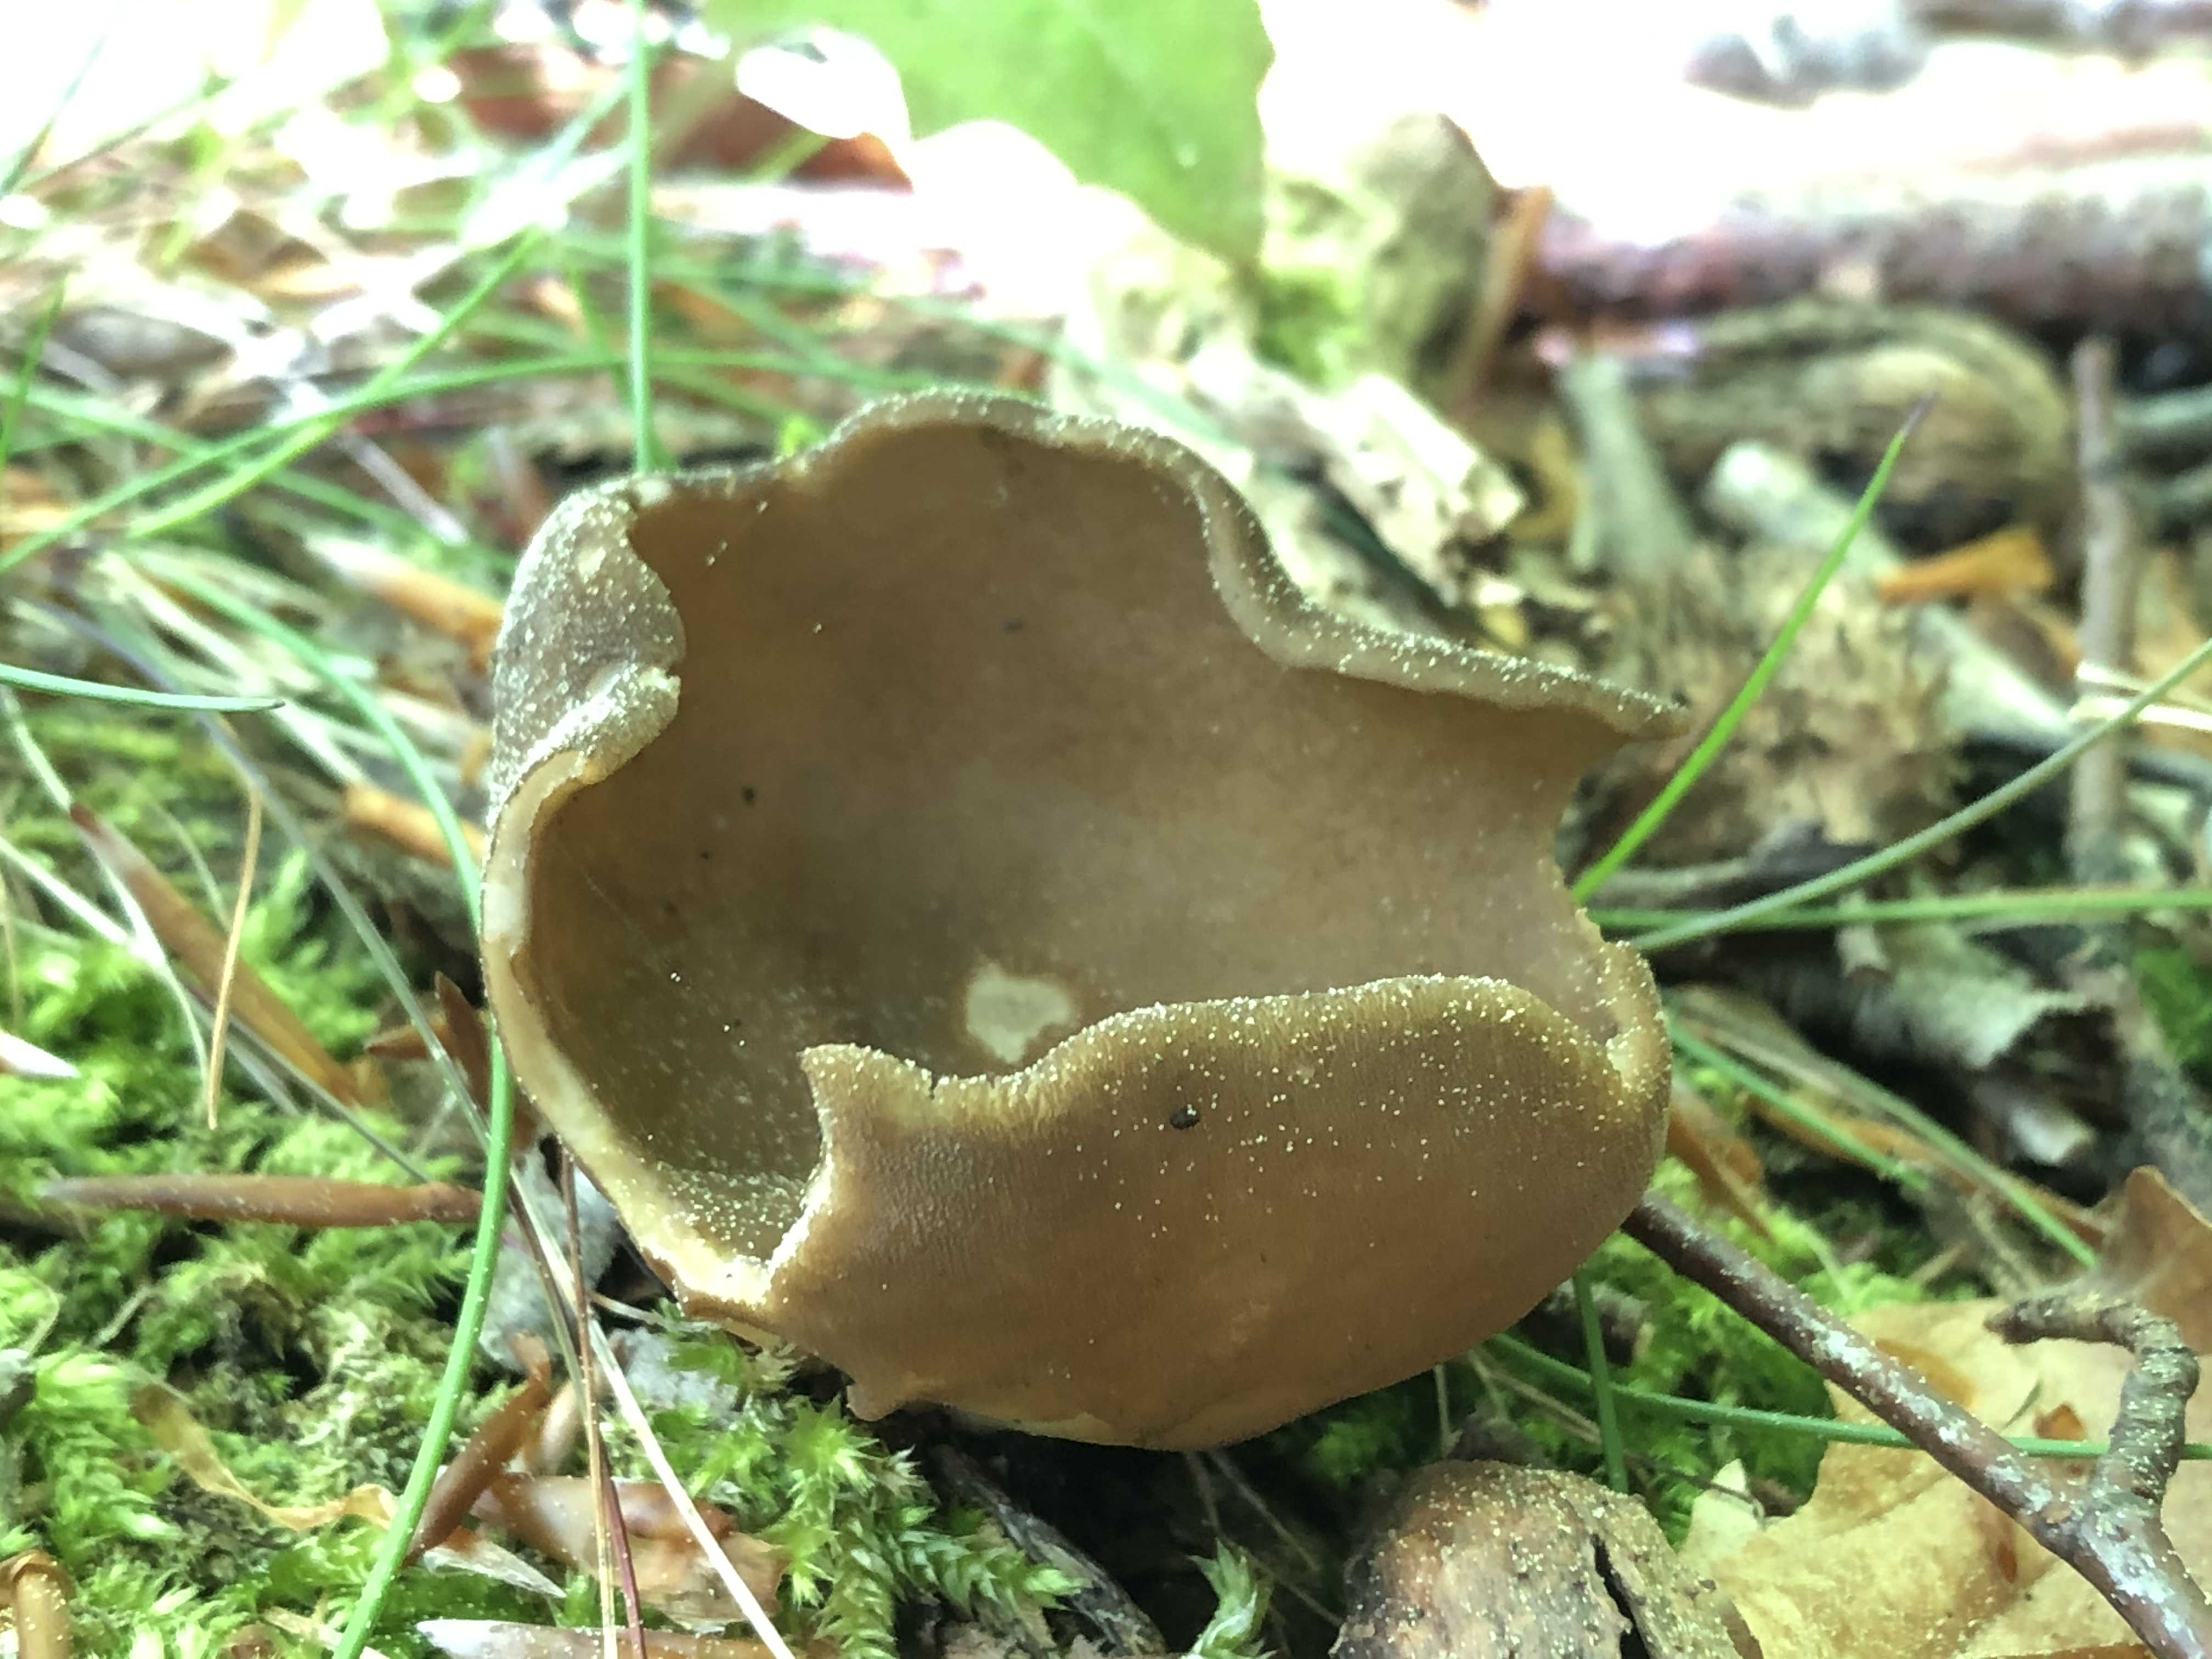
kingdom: Fungi
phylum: Ascomycota
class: Pezizomycetes
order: Pezizales
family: Helvellaceae
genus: Helvella
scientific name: Helvella acetabulum
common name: pokal-foldhat
